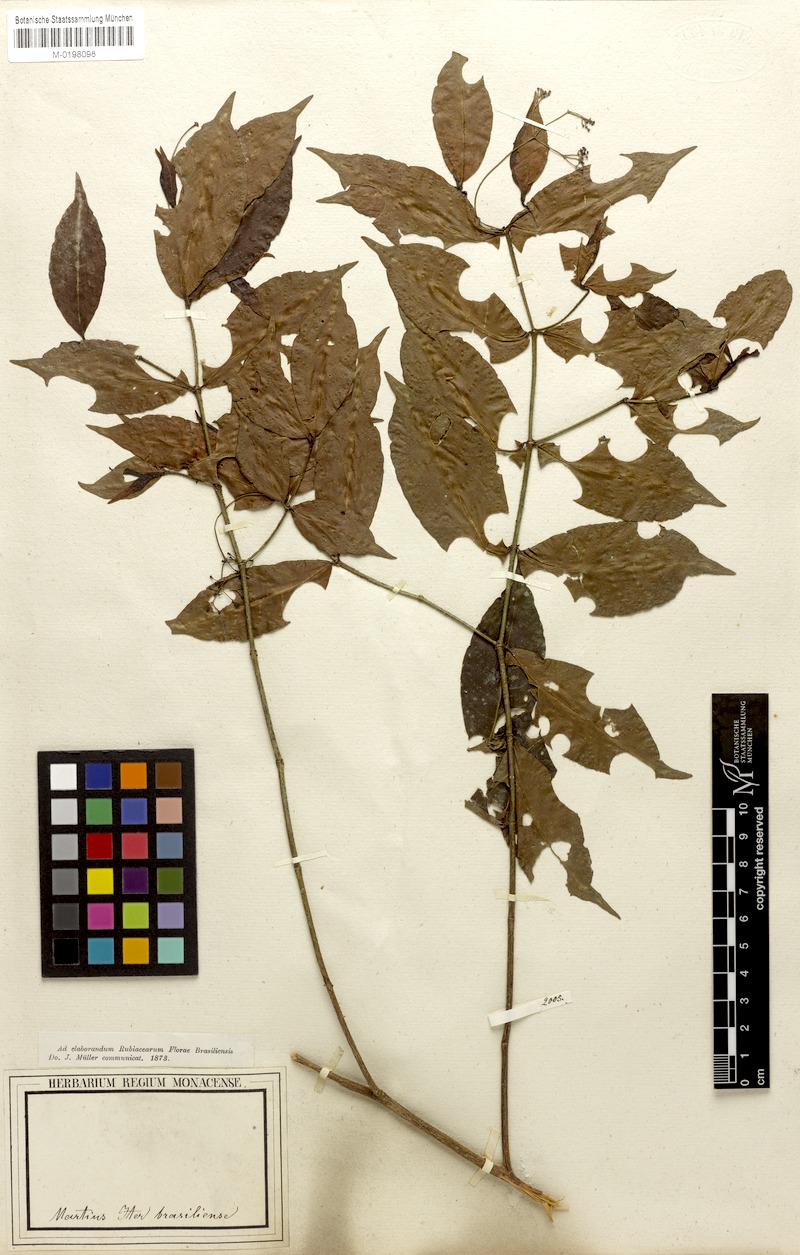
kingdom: Plantae
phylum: Tracheophyta
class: Magnoliopsida
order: Gentianales
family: Rubiaceae
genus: Psychotria
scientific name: Psychotria capillacea
